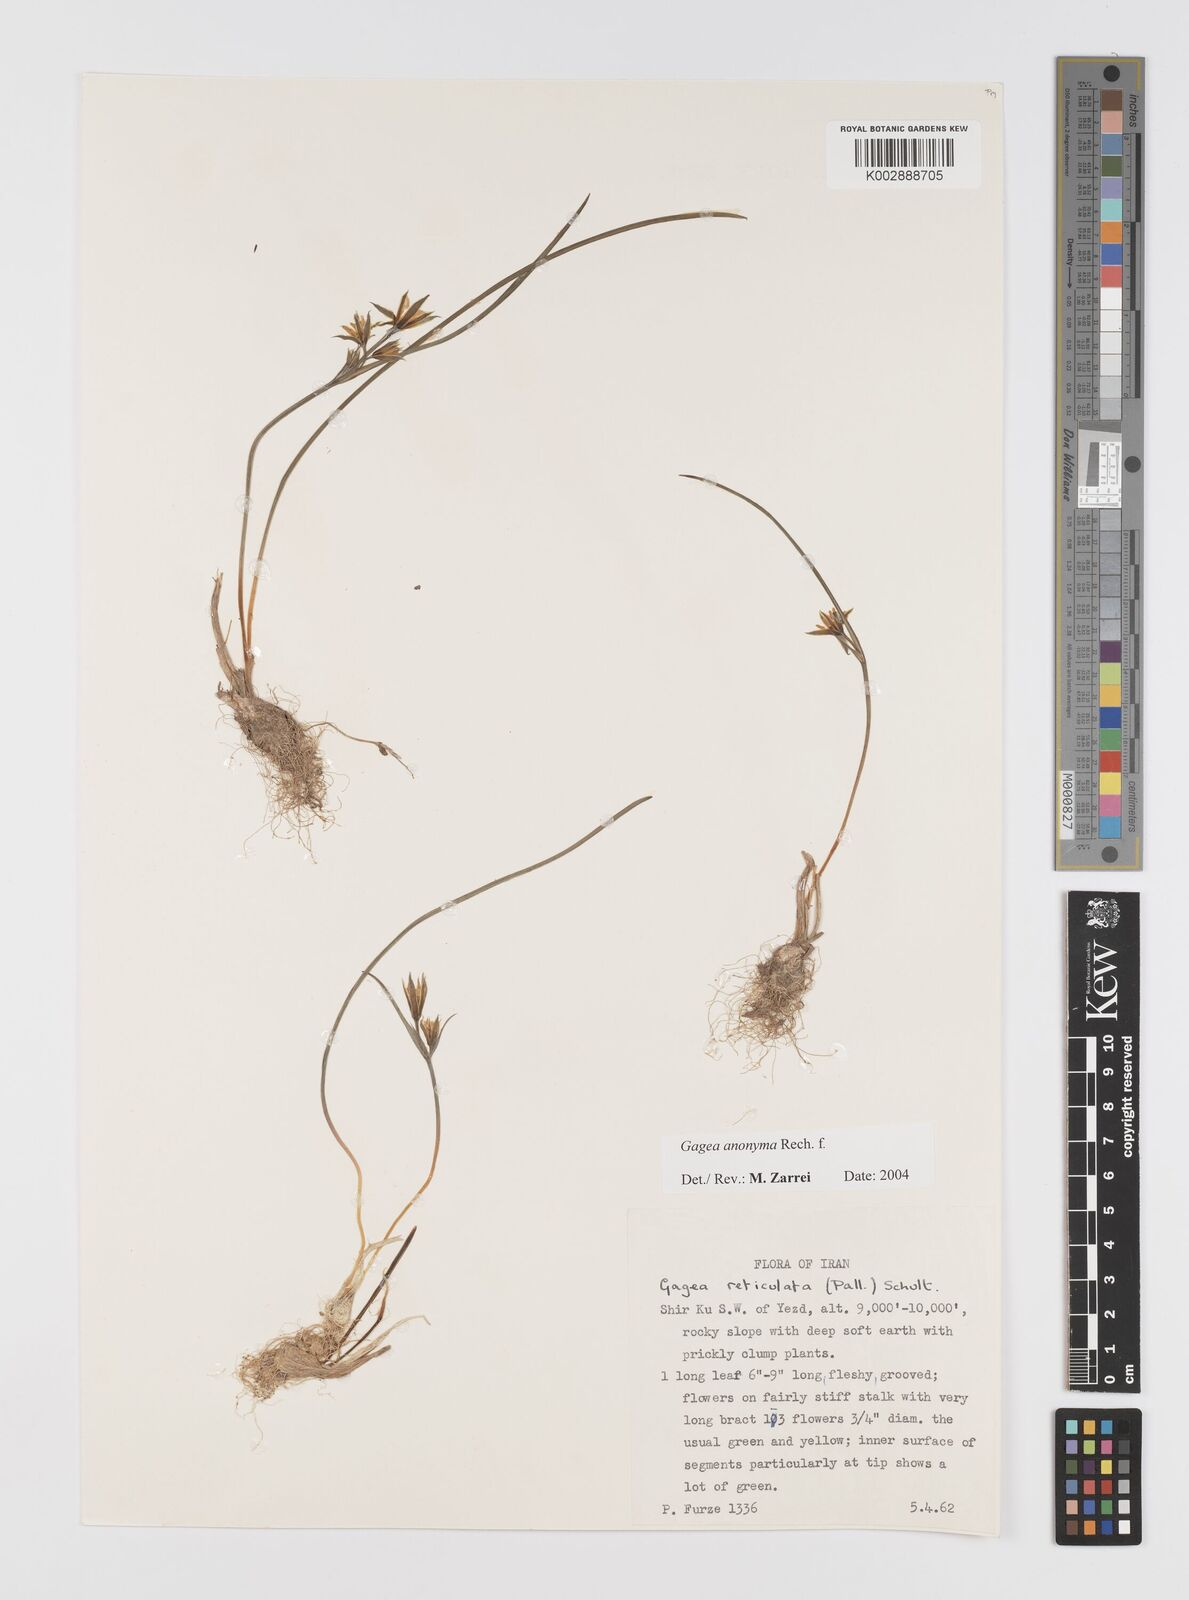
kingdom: Plantae
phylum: Tracheophyta
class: Liliopsida
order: Liliales
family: Liliaceae
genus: Gagea
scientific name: Gagea setifolia
